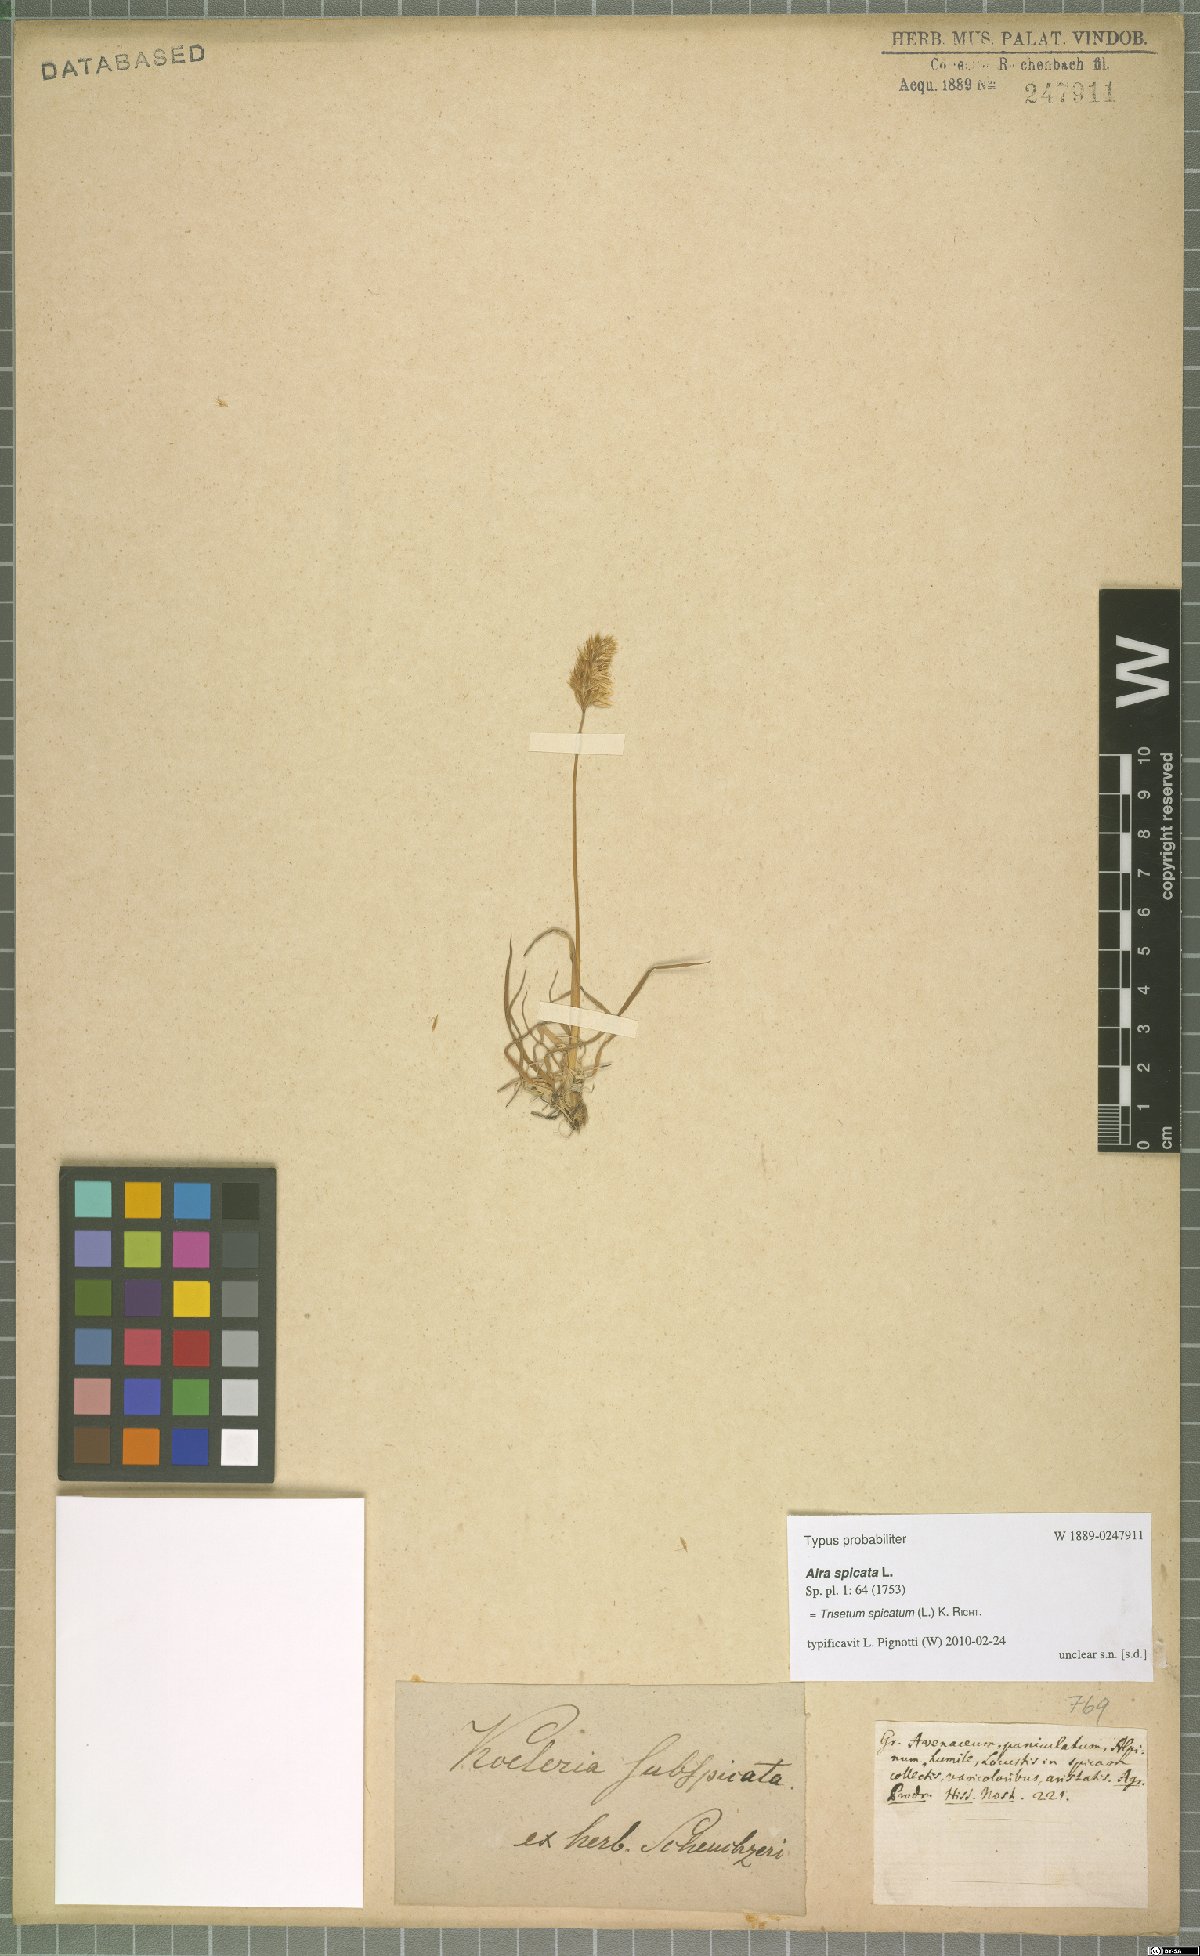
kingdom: Plantae
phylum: Tracheophyta
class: Liliopsida
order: Poales
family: Poaceae
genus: Koeleria
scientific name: Koeleria spicata
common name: Mountain trisetum
